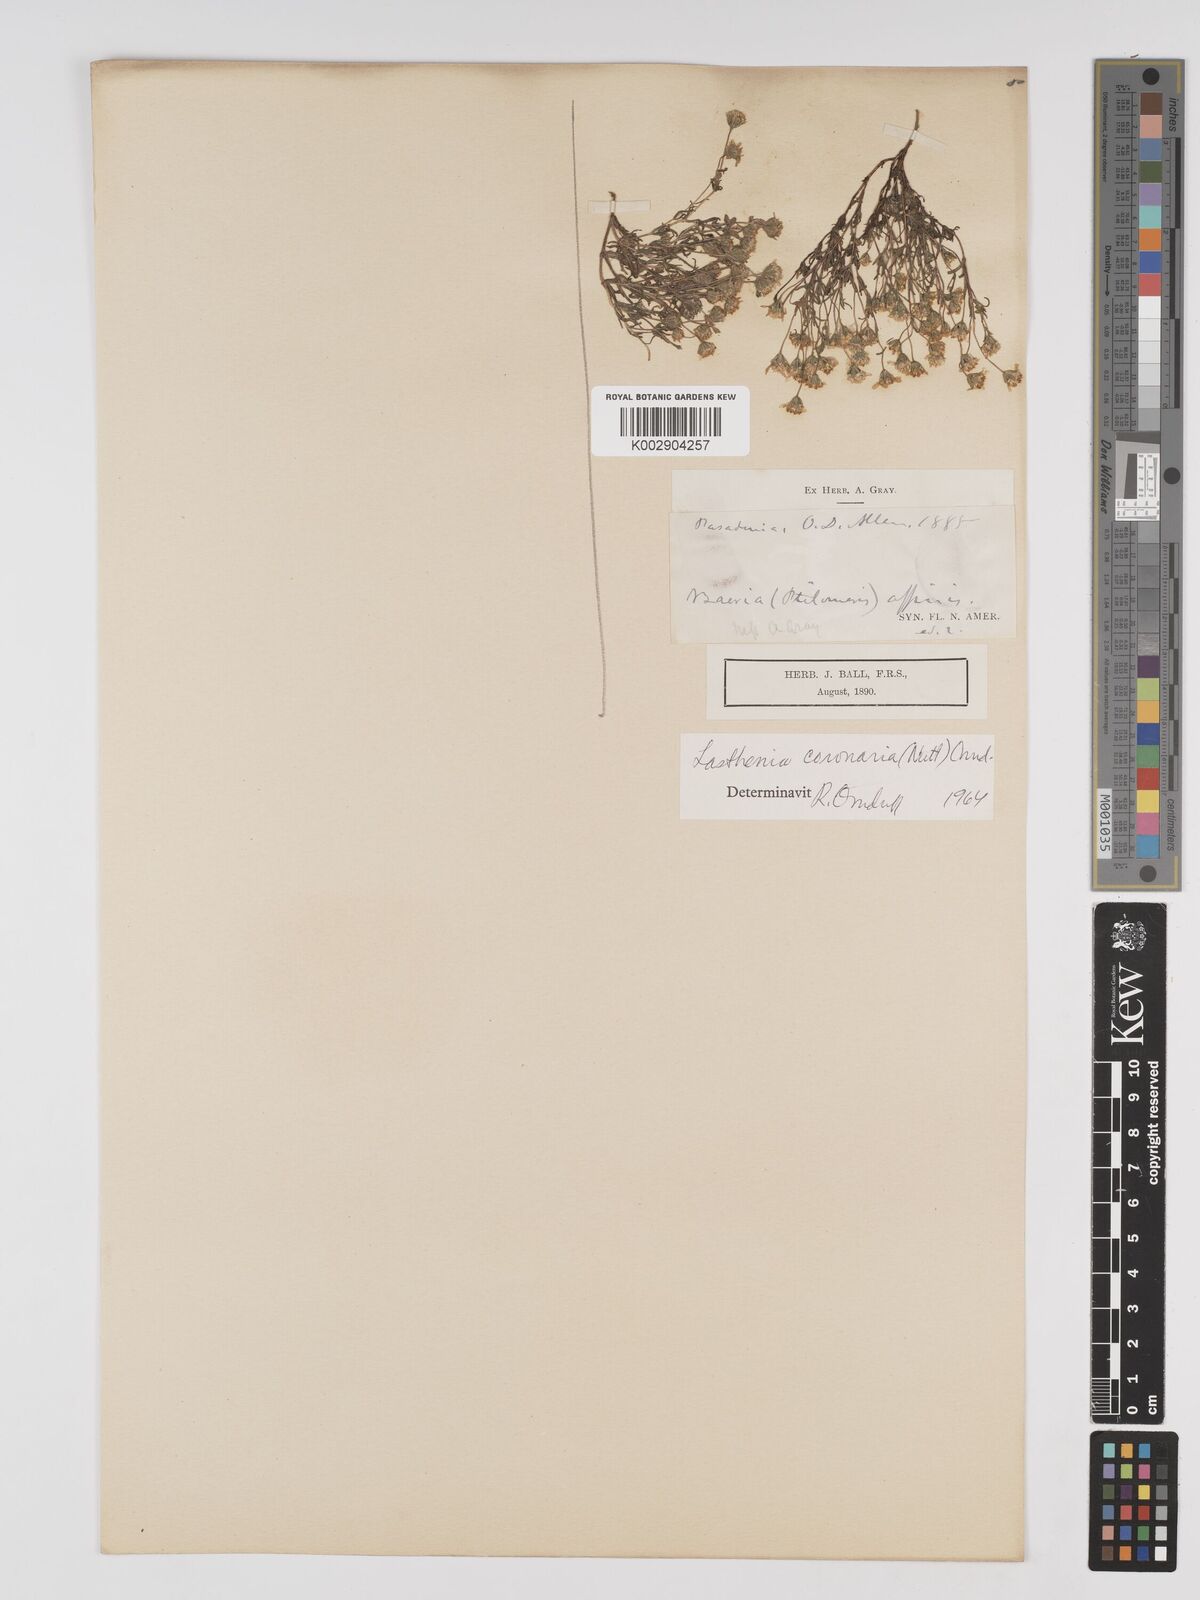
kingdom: Plantae
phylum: Tracheophyta
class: Magnoliopsida
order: Asterales
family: Asteraceae
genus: Lasthenia
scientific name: Lasthenia coronaria
